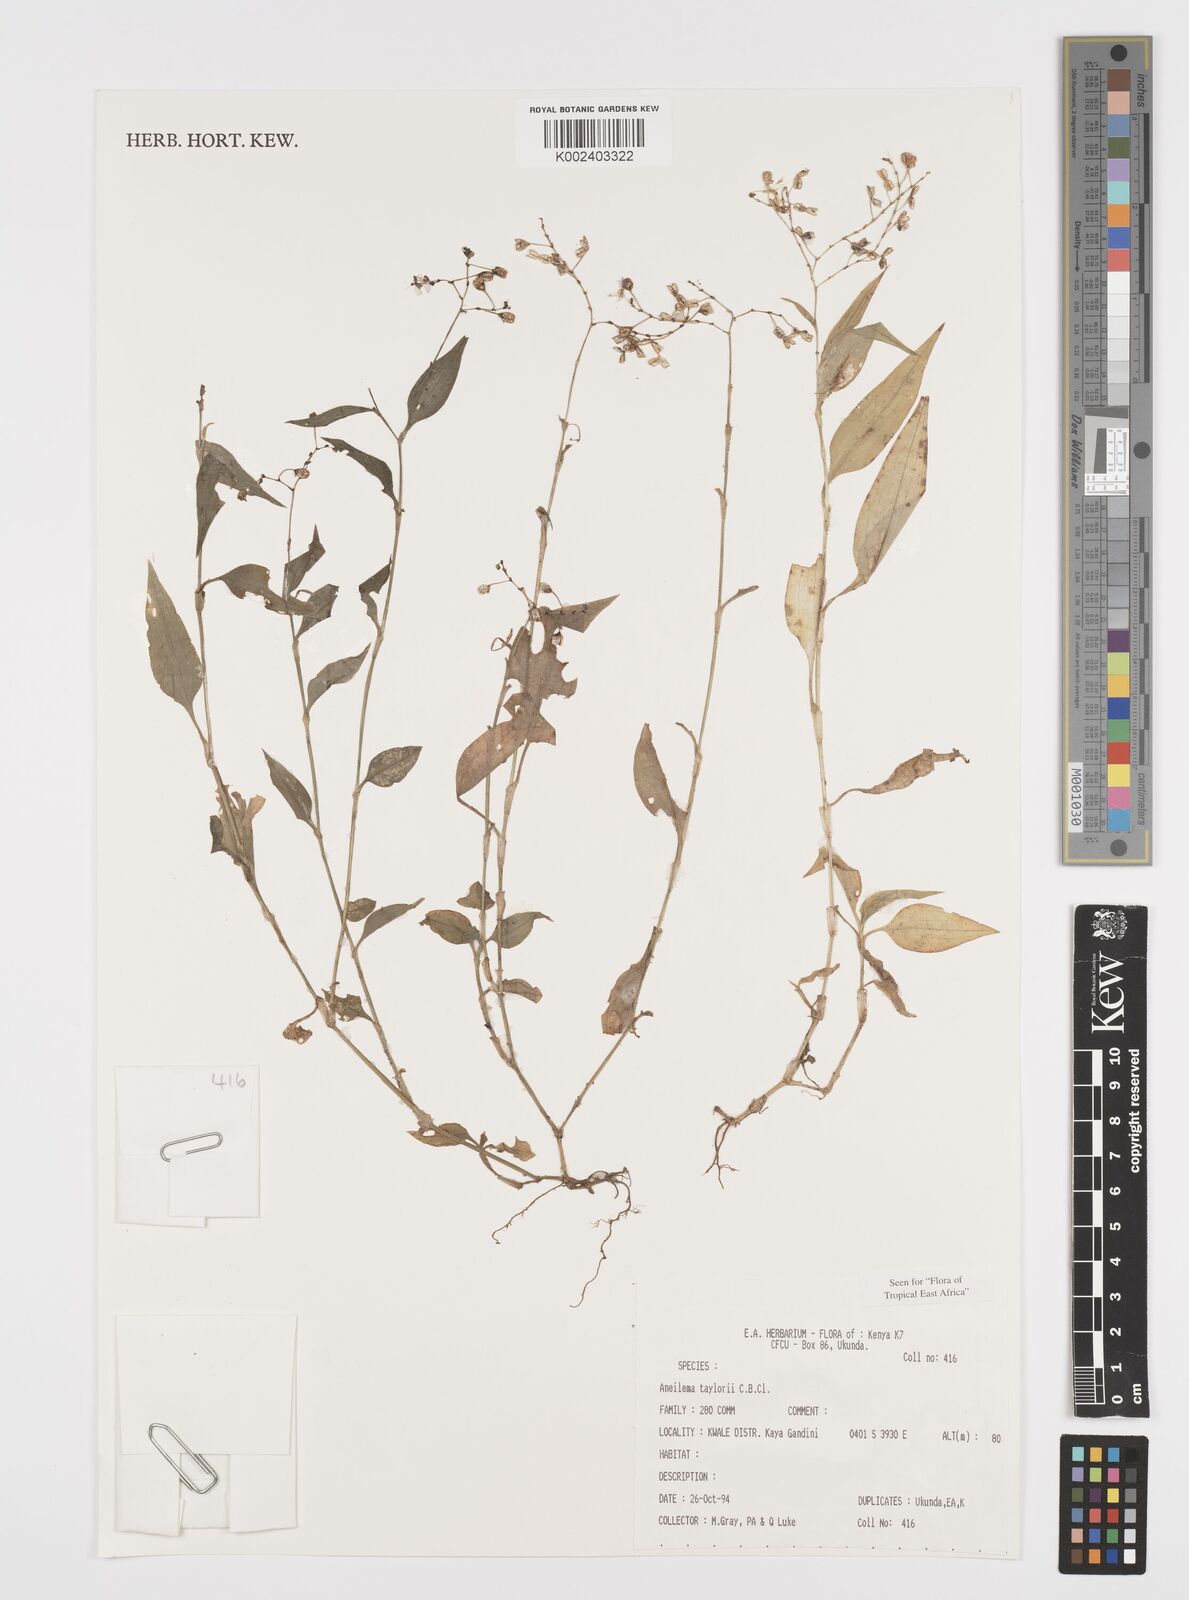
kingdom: Plantae
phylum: Tracheophyta
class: Liliopsida
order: Commelinales
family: Commelinaceae
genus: Aneilema
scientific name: Aneilema taylorii
